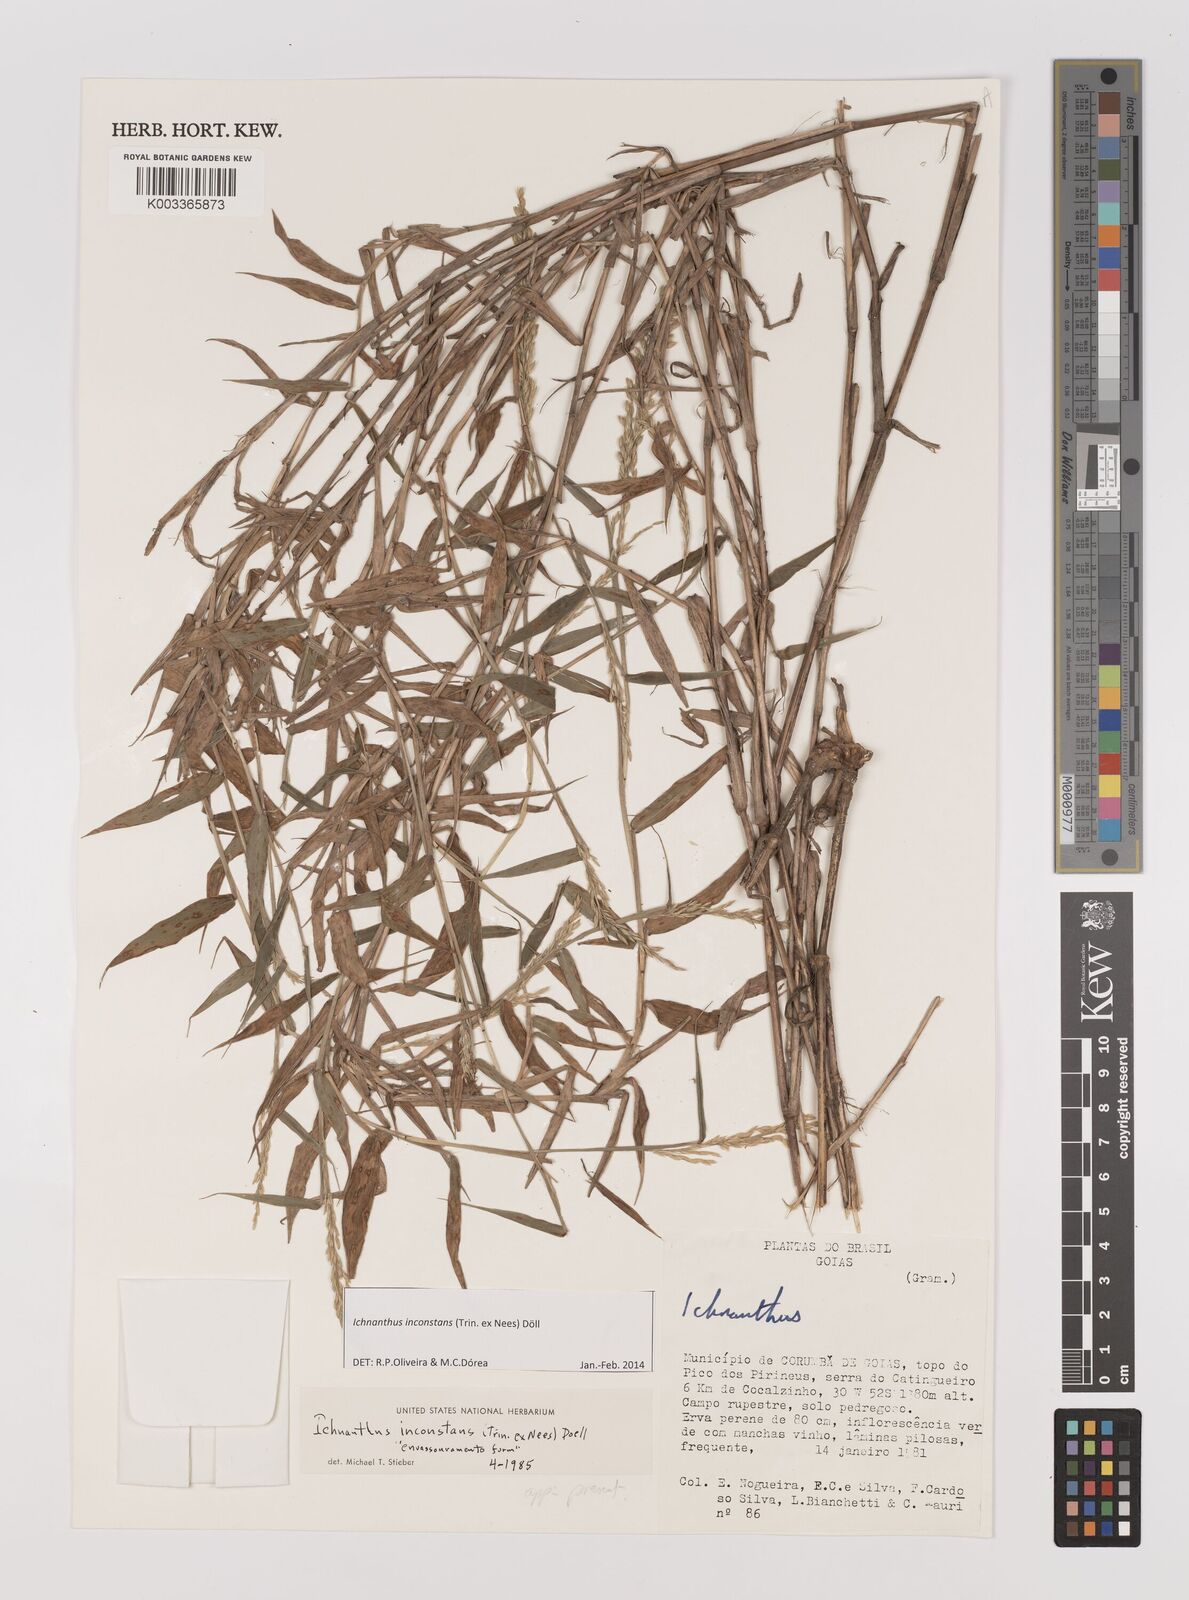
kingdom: Plantae
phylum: Tracheophyta
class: Liliopsida
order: Poales
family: Poaceae
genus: Ichnanthus
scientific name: Ichnanthus inconstans
